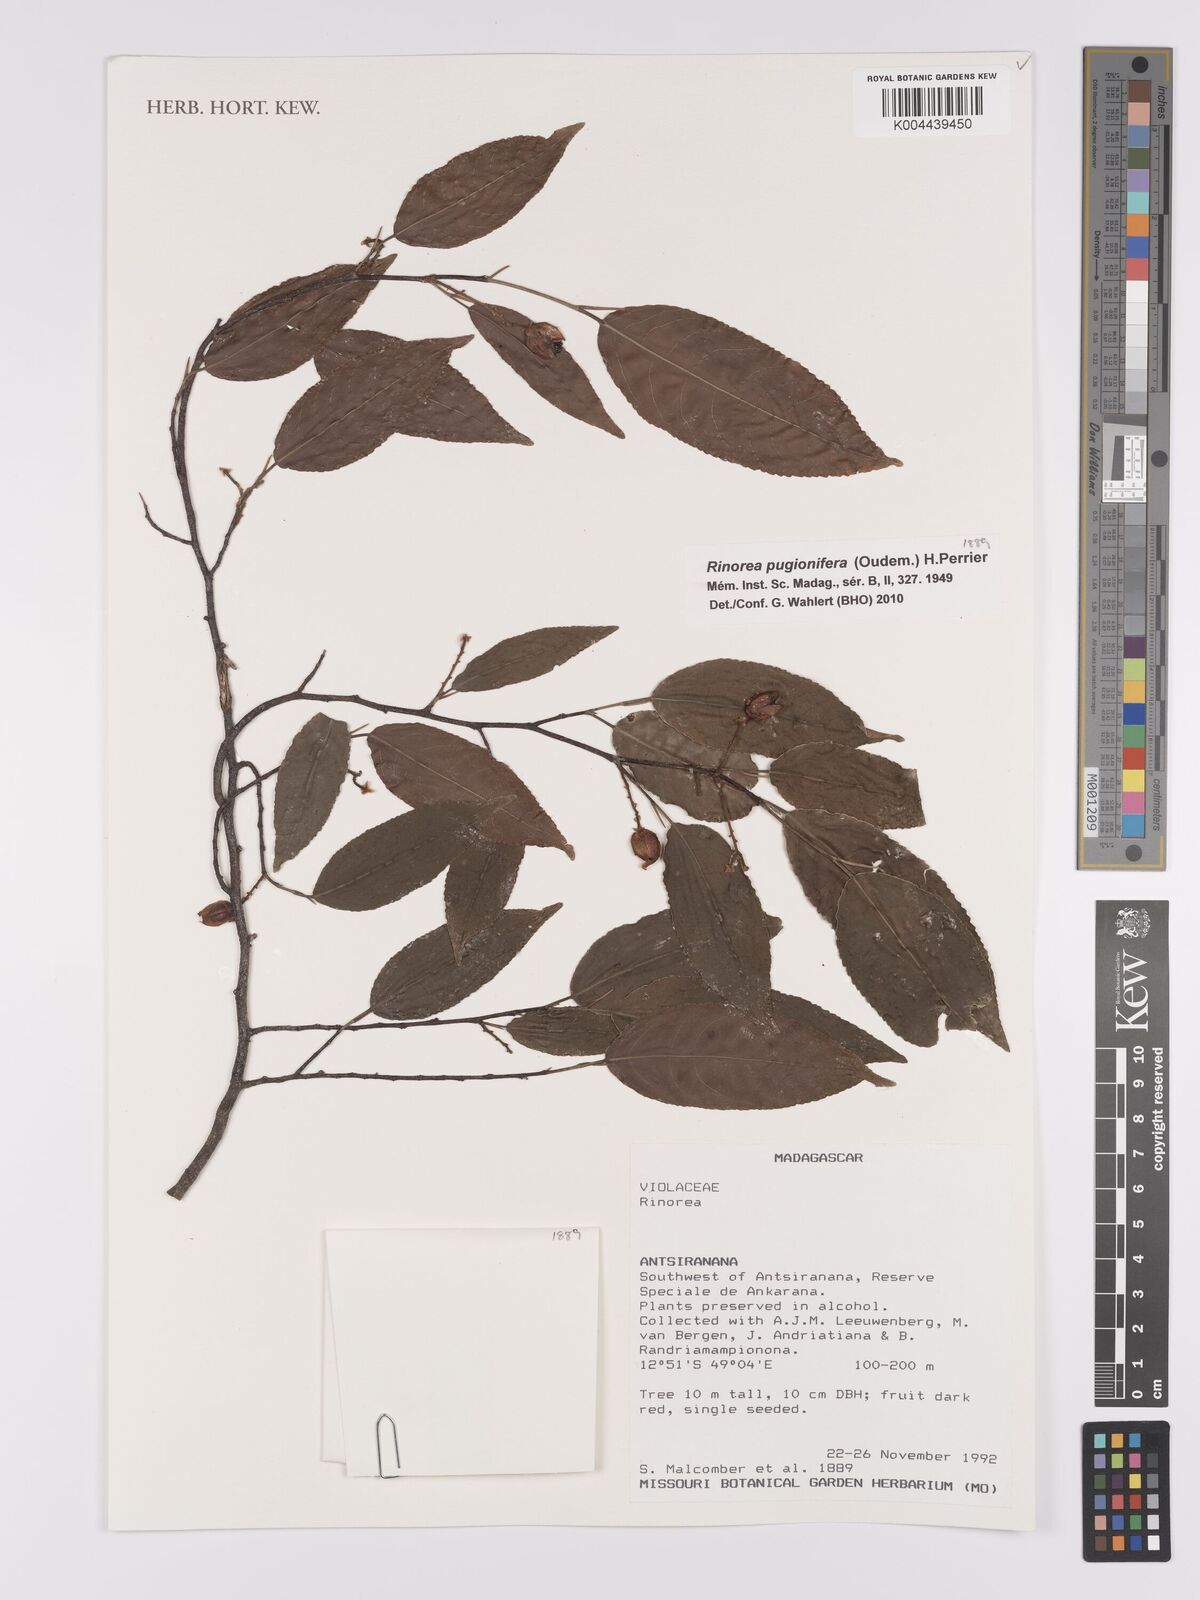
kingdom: Plantae
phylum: Tracheophyta
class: Magnoliopsida
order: Malpighiales
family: Violaceae
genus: Rinorea
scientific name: Rinorea pugionifera
